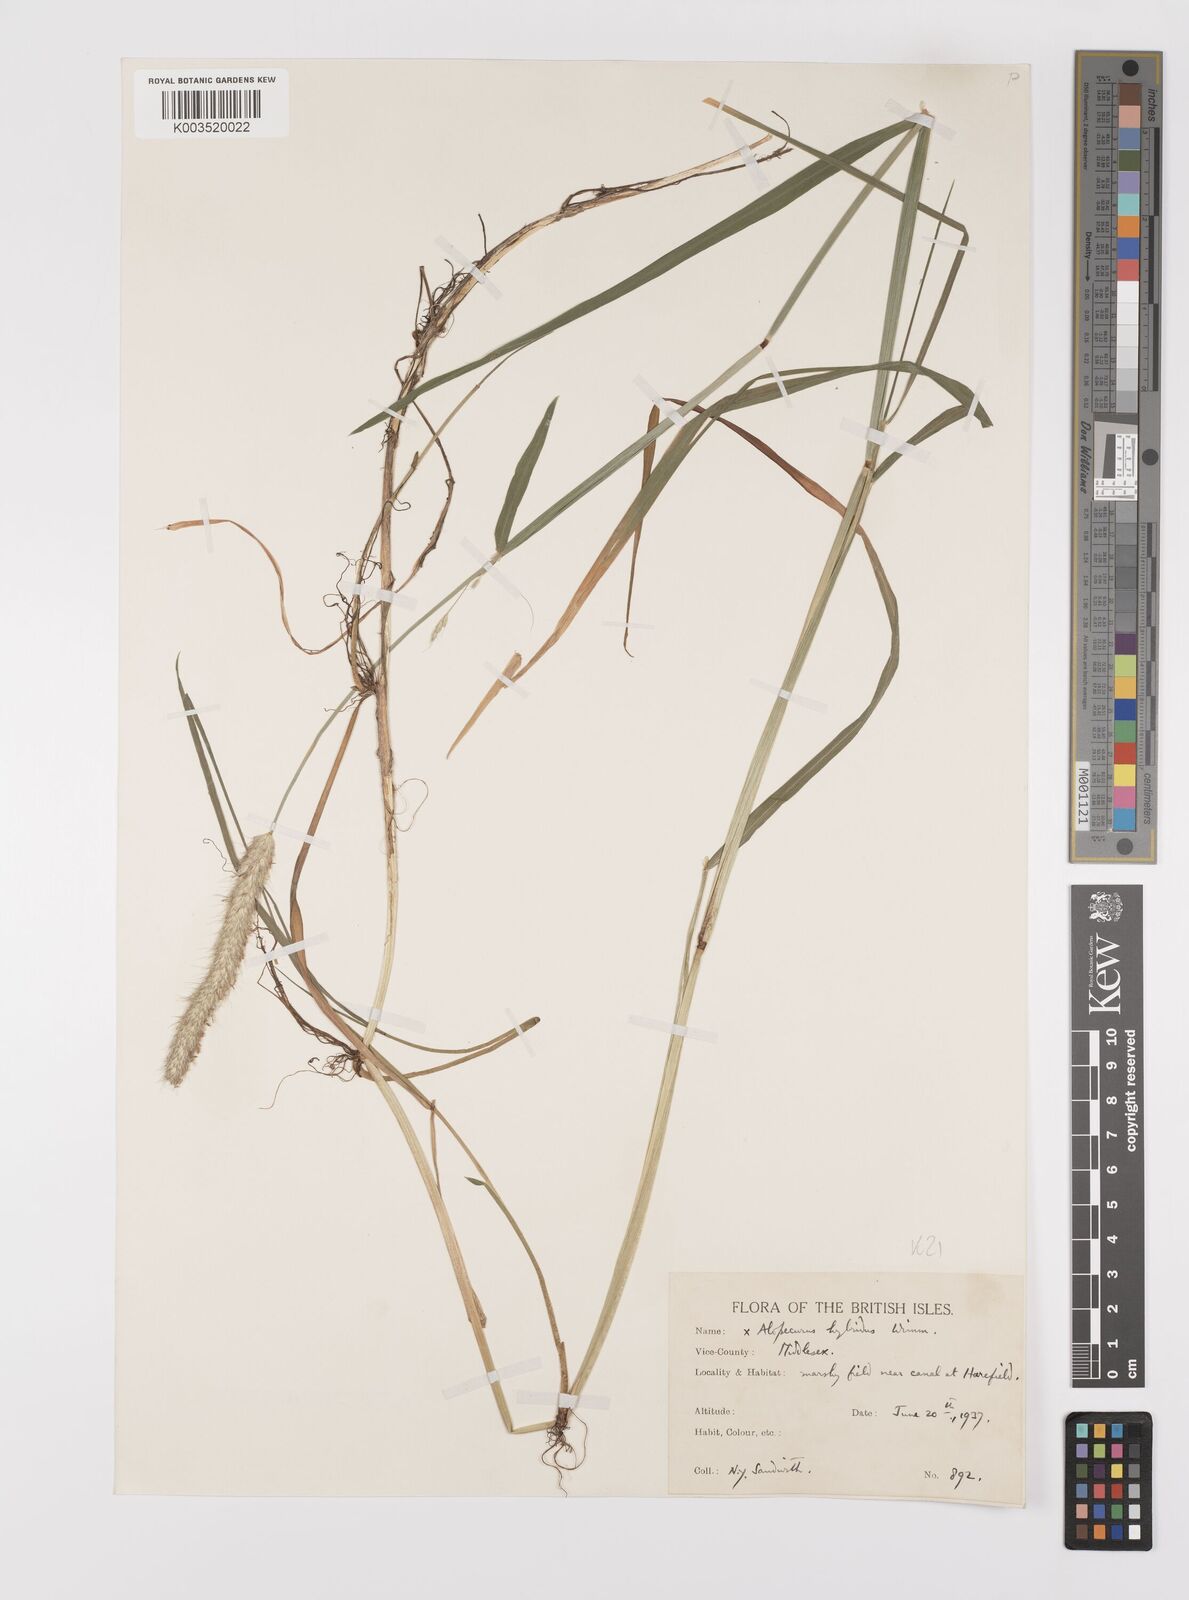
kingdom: Plantae
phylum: Tracheophyta
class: Liliopsida
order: Poales
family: Poaceae
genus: Alopecurus
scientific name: Alopecurus brachystylus
